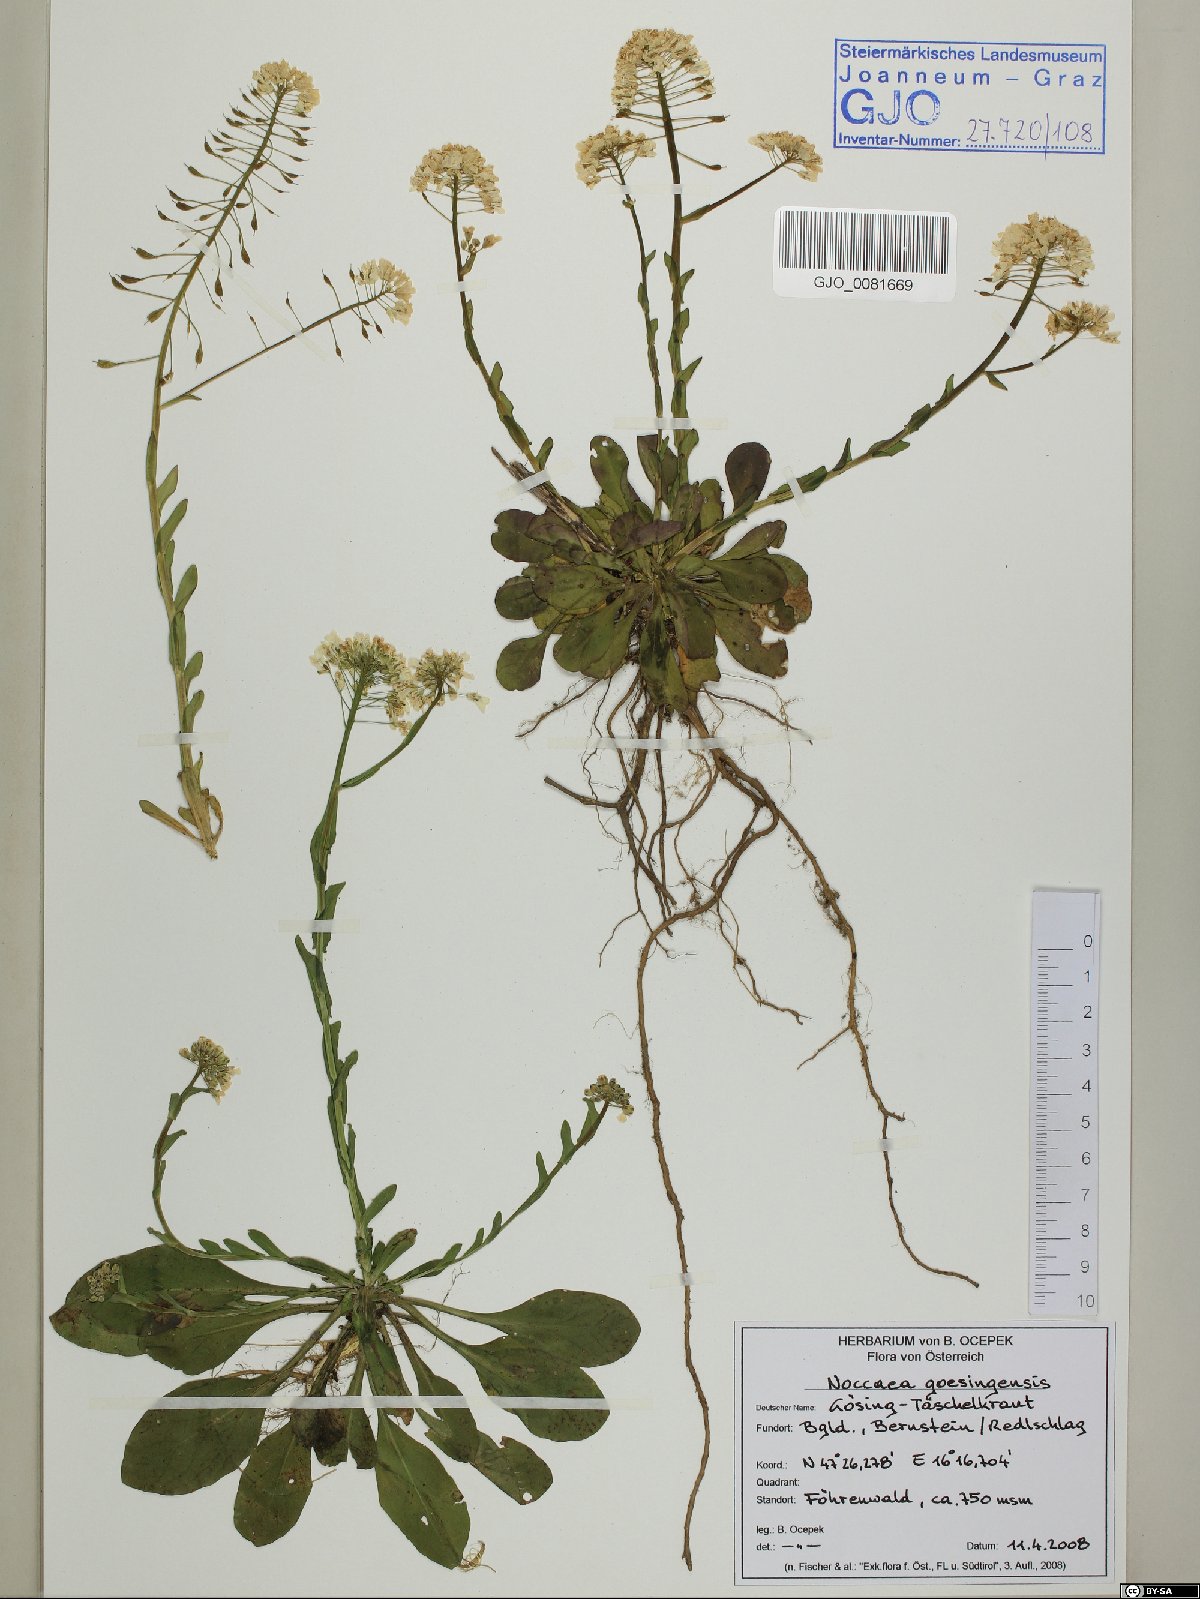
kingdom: Plantae
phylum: Tracheophyta
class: Magnoliopsida
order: Brassicales
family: Brassicaceae
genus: Noccaea
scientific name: Noccaea goesingensis
